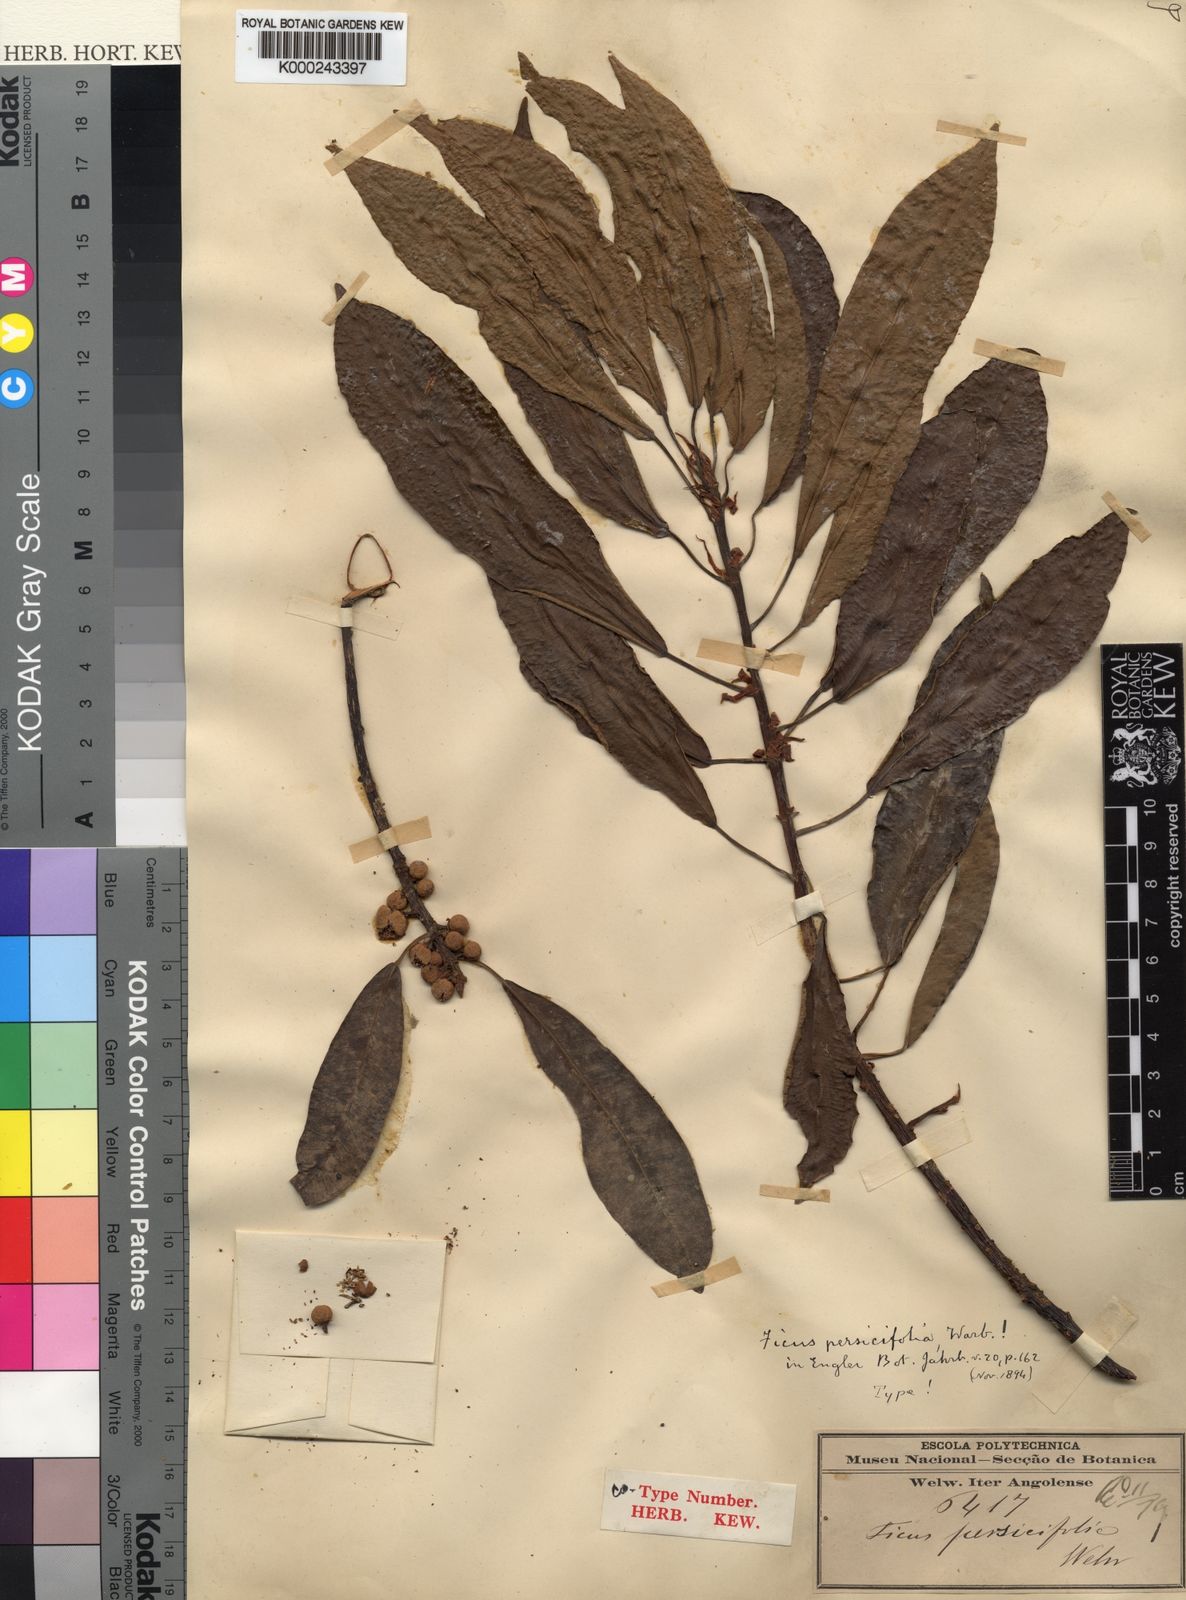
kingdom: Plantae
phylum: Tracheophyta
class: Magnoliopsida
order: Rosales
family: Moraceae
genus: Ficus
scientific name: Ficus thonningii
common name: Fig
